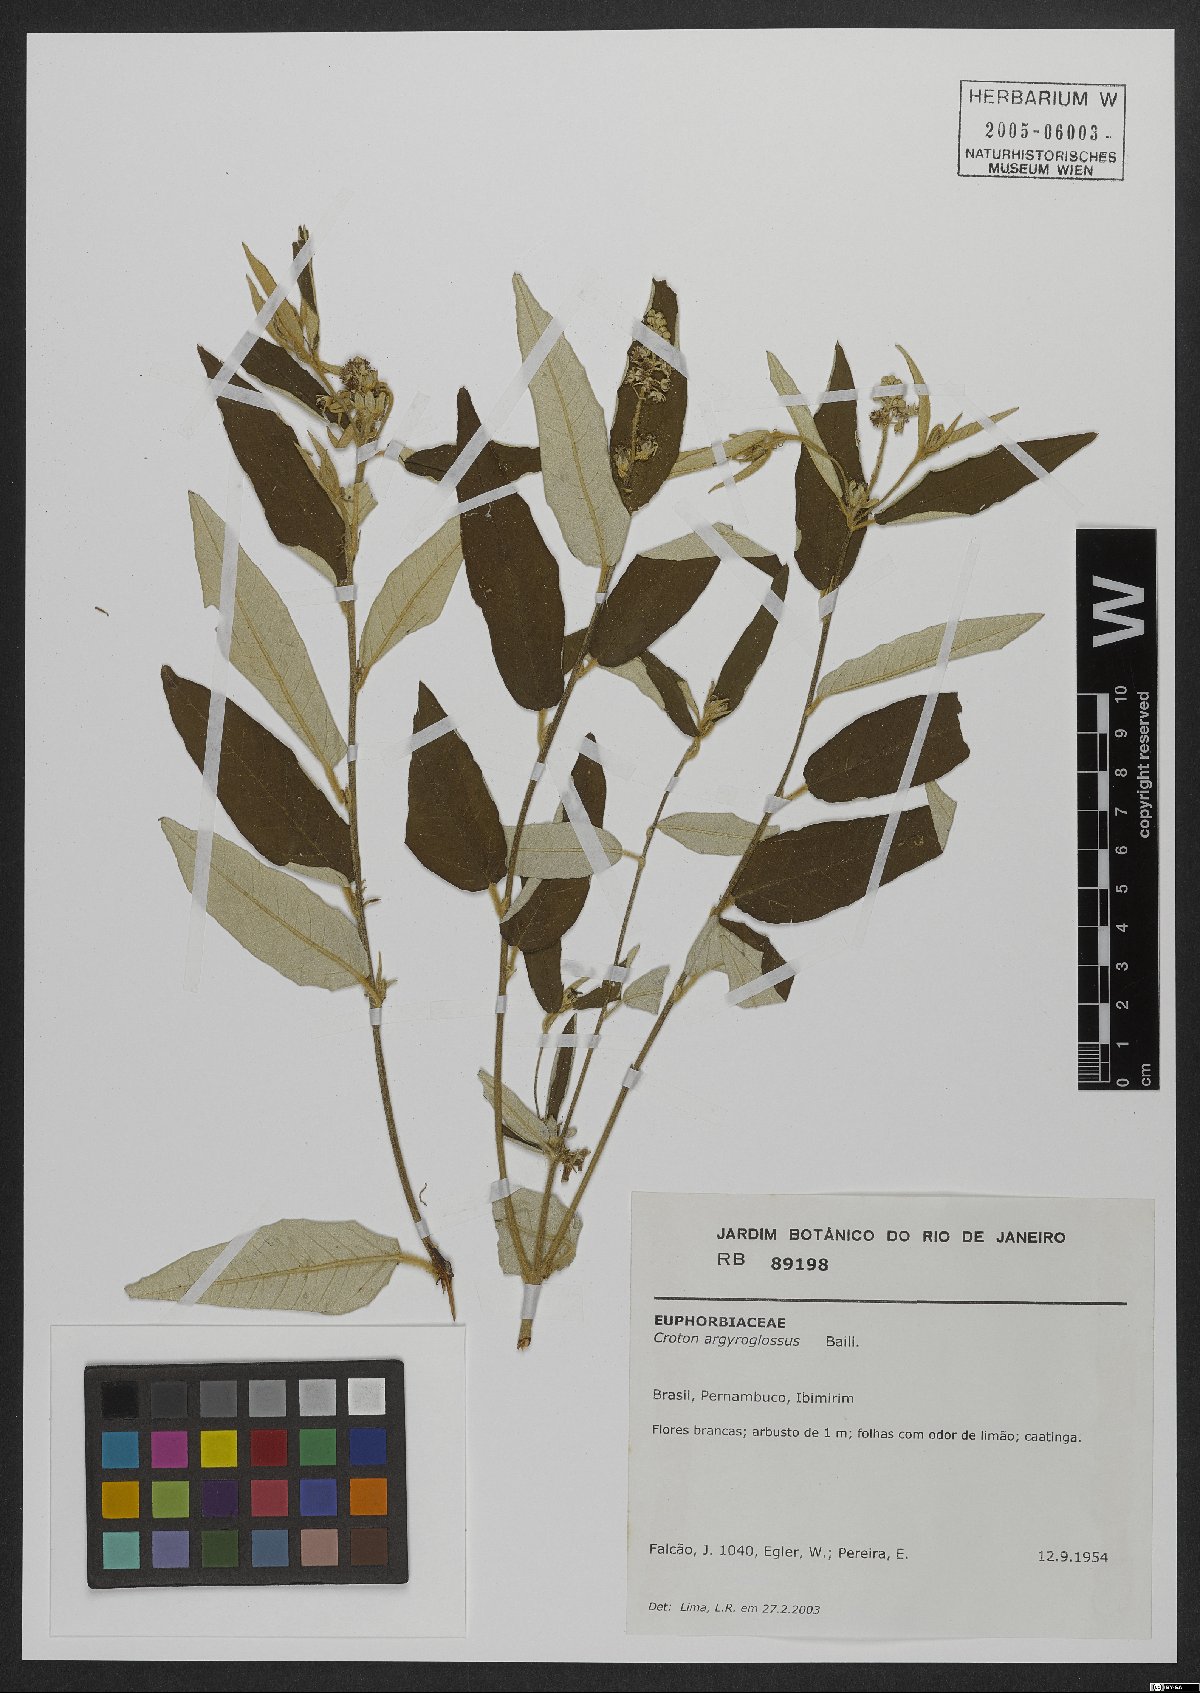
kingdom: Plantae
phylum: Tracheophyta
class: Magnoliopsida
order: Malpighiales
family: Euphorbiaceae
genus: Croton
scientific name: Croton argyrophyllus
